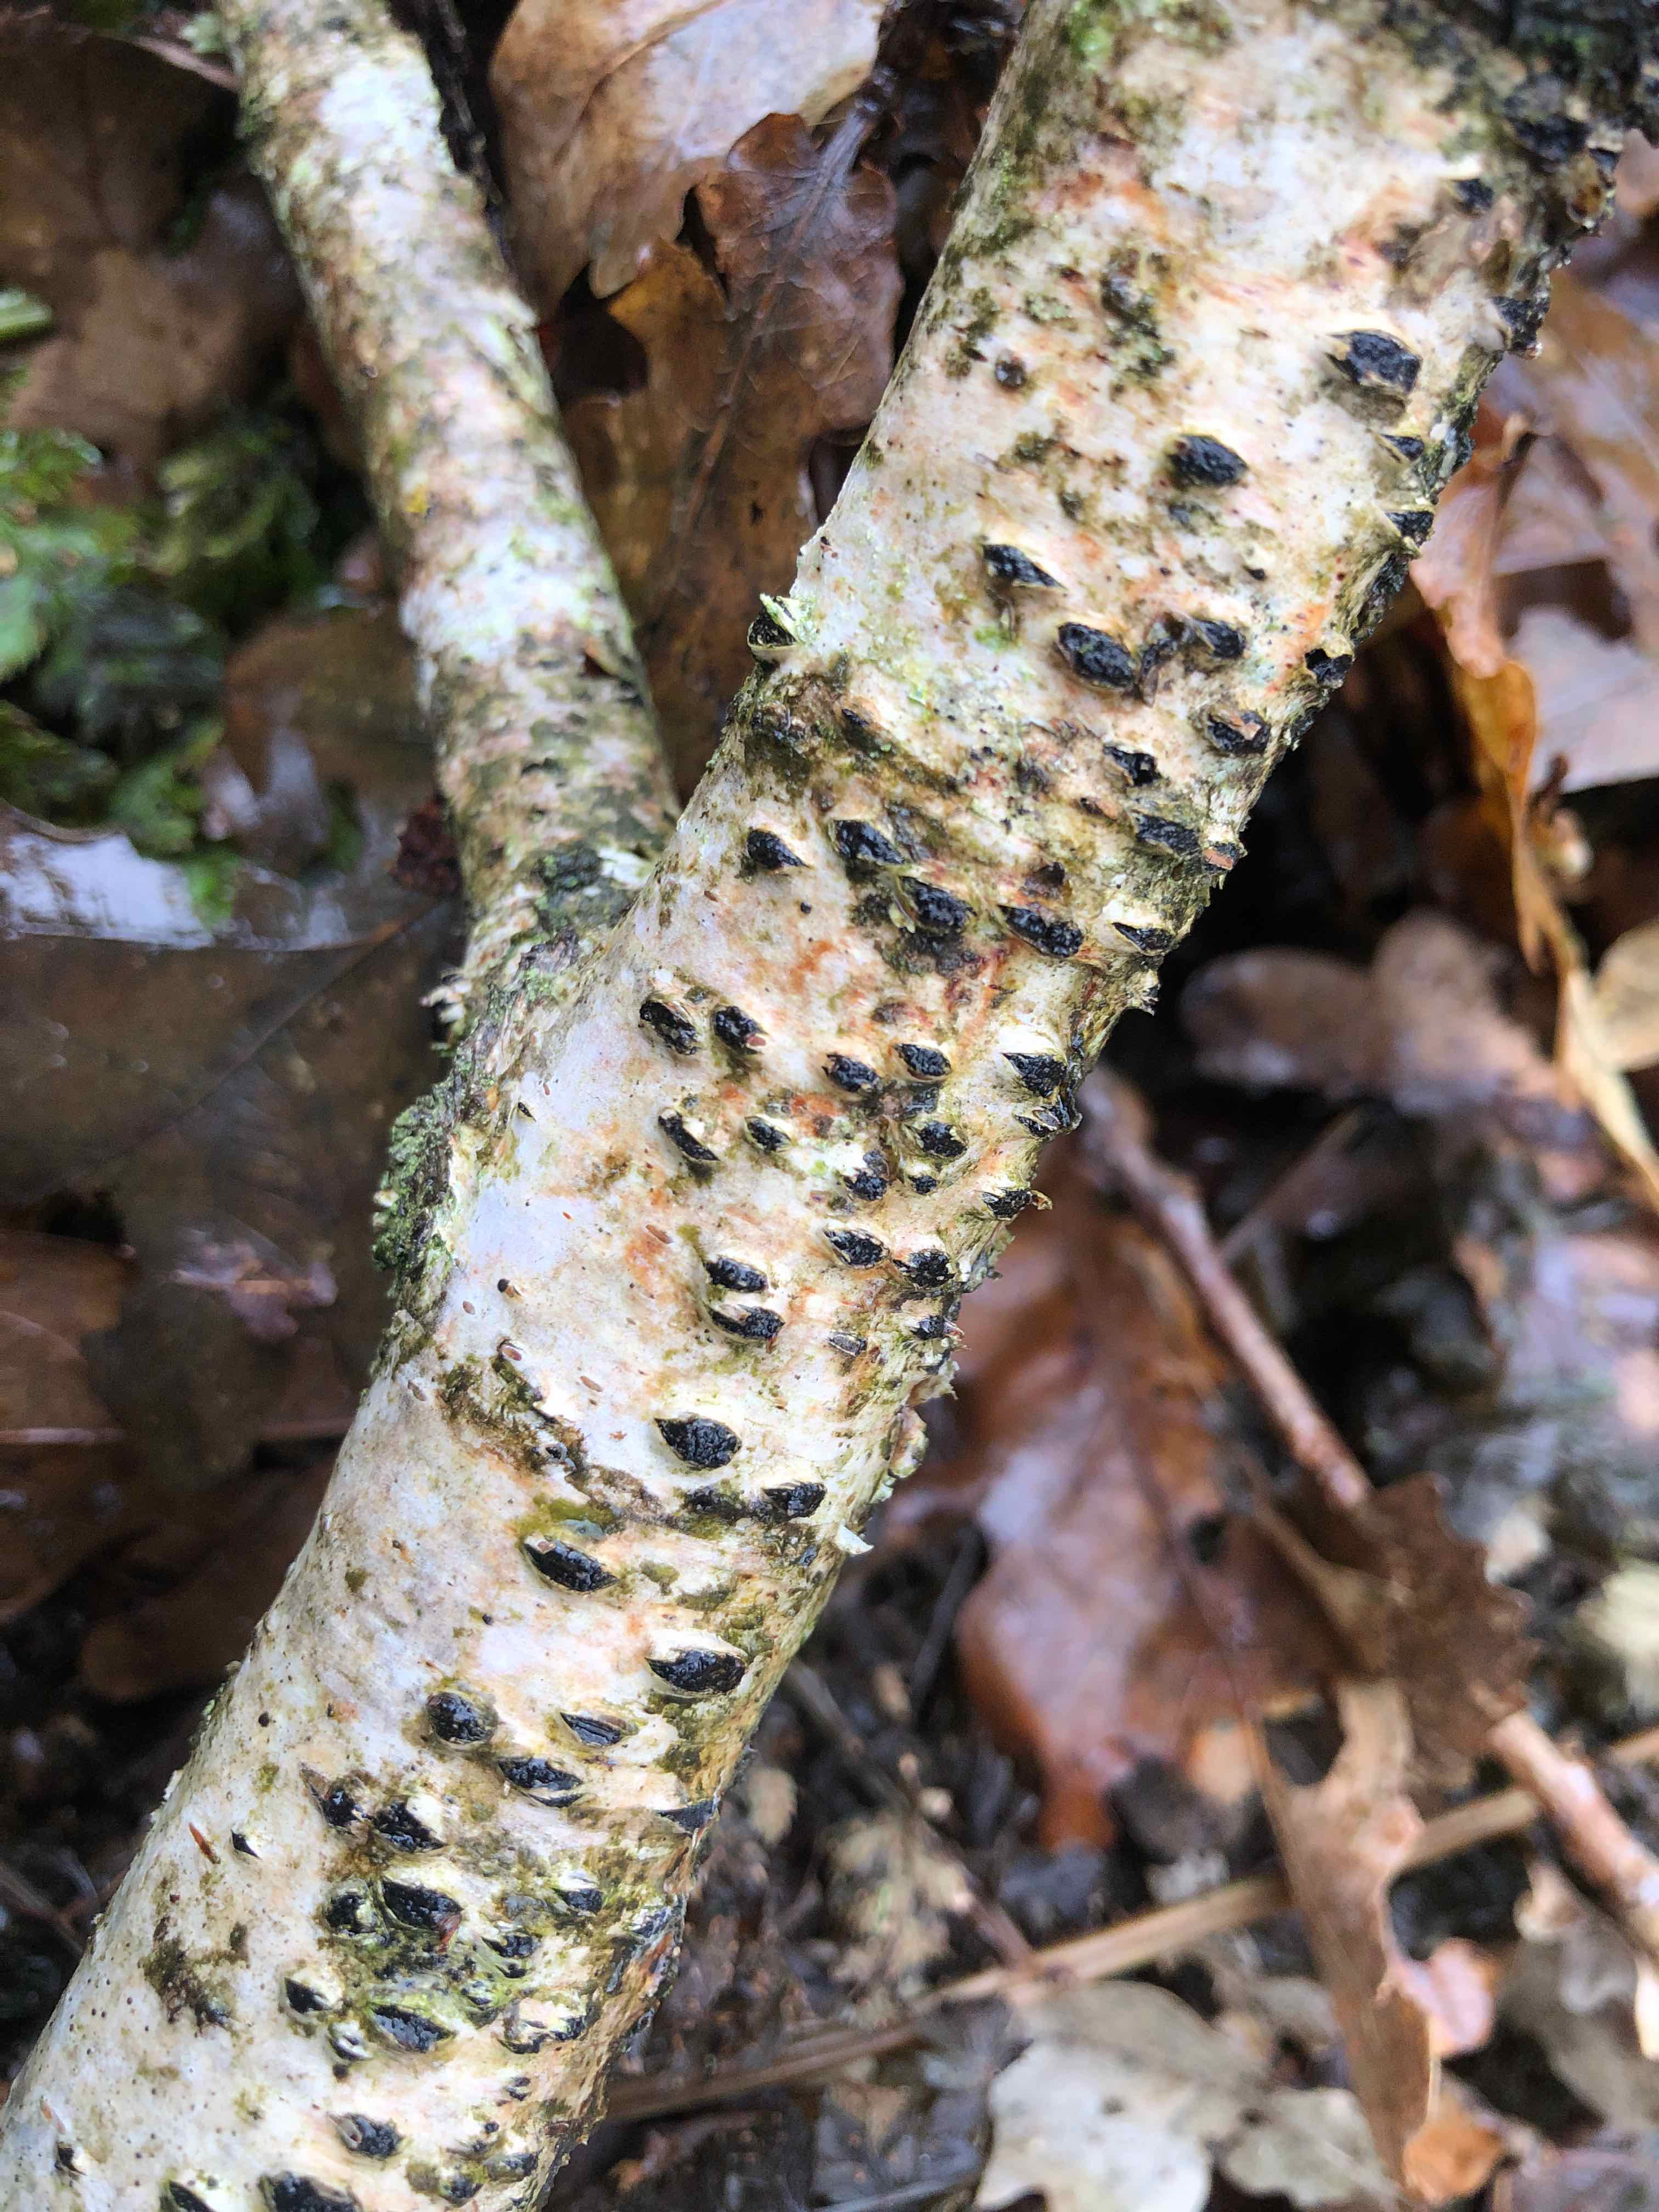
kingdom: Fungi
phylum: Ascomycota
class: Sordariomycetes
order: Xylariales
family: Diatrypaceae
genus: Diatrypella
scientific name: Diatrypella favacea
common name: klemt kulskorpe
